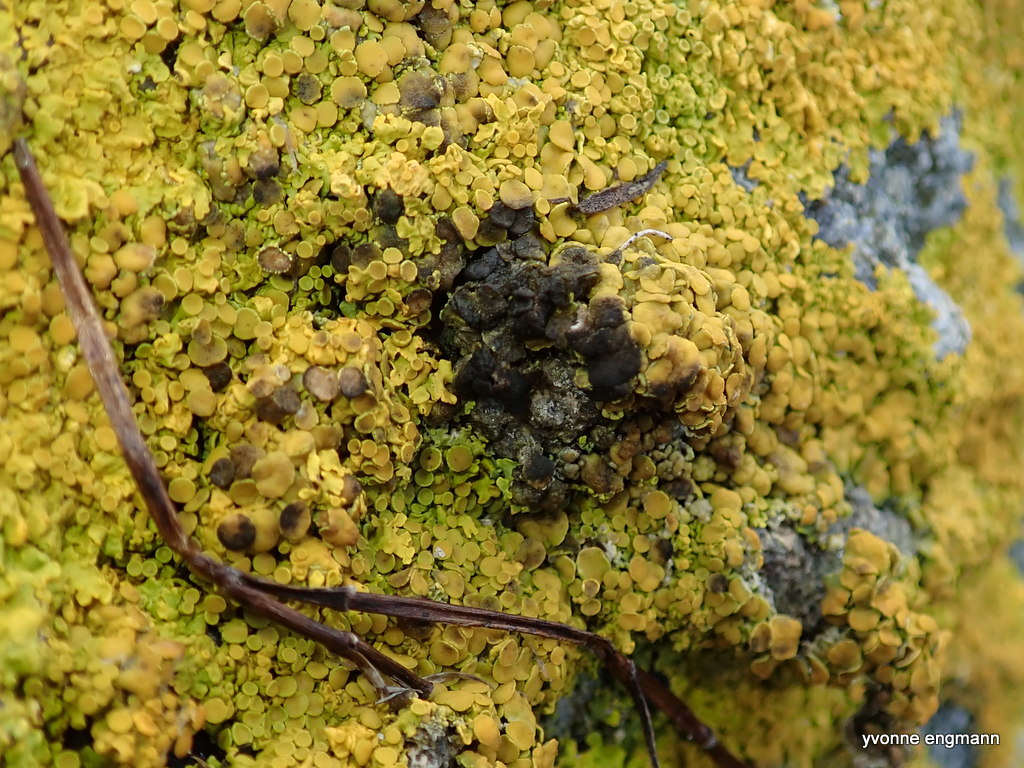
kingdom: Fungi
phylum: Ascomycota
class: Dothideomycetes
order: Mycosphaerellales
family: Teratosphaeriaceae
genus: Xanthoriicola
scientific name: Xanthoriicola physciae
